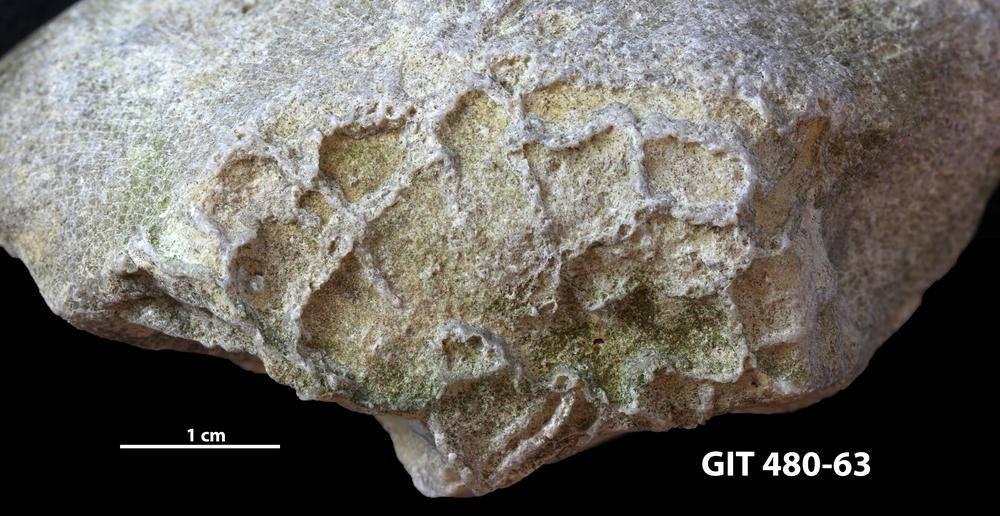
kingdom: Animalia
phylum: Cnidaria
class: Anthozoa
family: Cateniporidae
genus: Catenipora
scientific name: Catenipora
